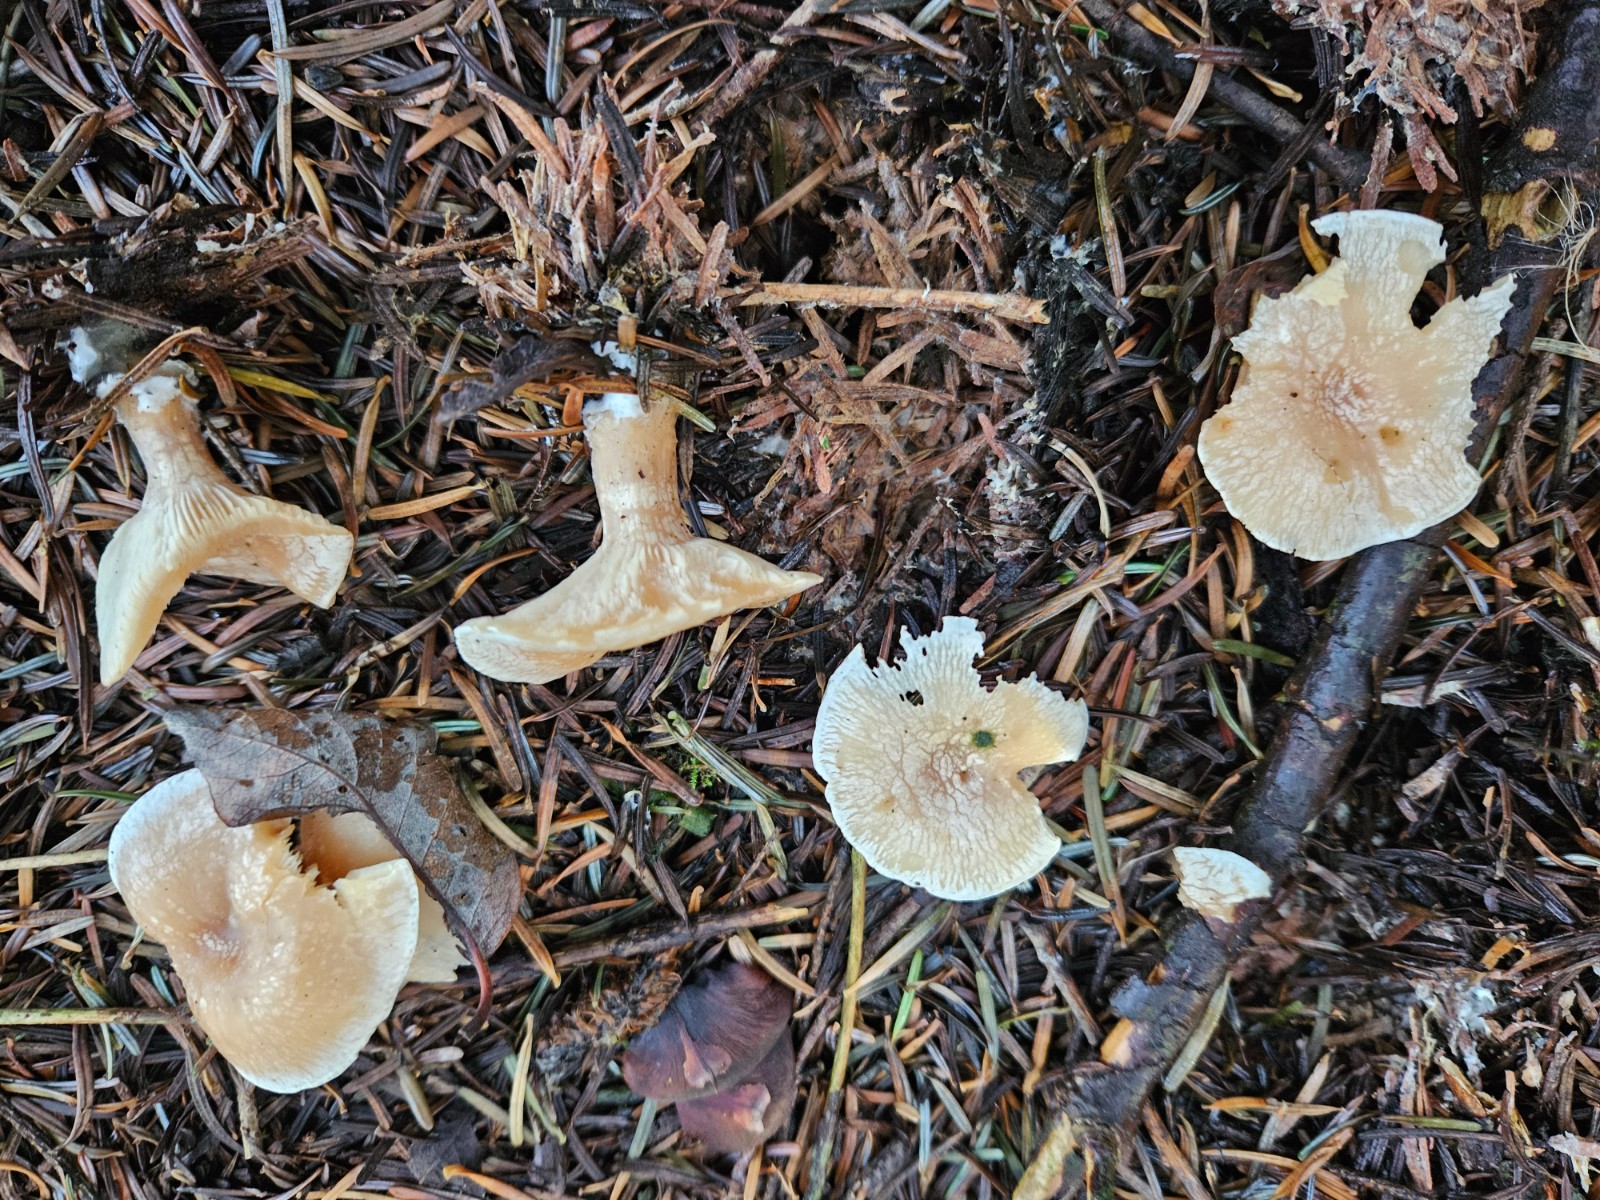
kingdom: Fungi
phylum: Basidiomycota
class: Agaricomycetes
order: Agaricales
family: Tricholomataceae
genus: Clitocybe
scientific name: Clitocybe phyllophila
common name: løv-tragthat
